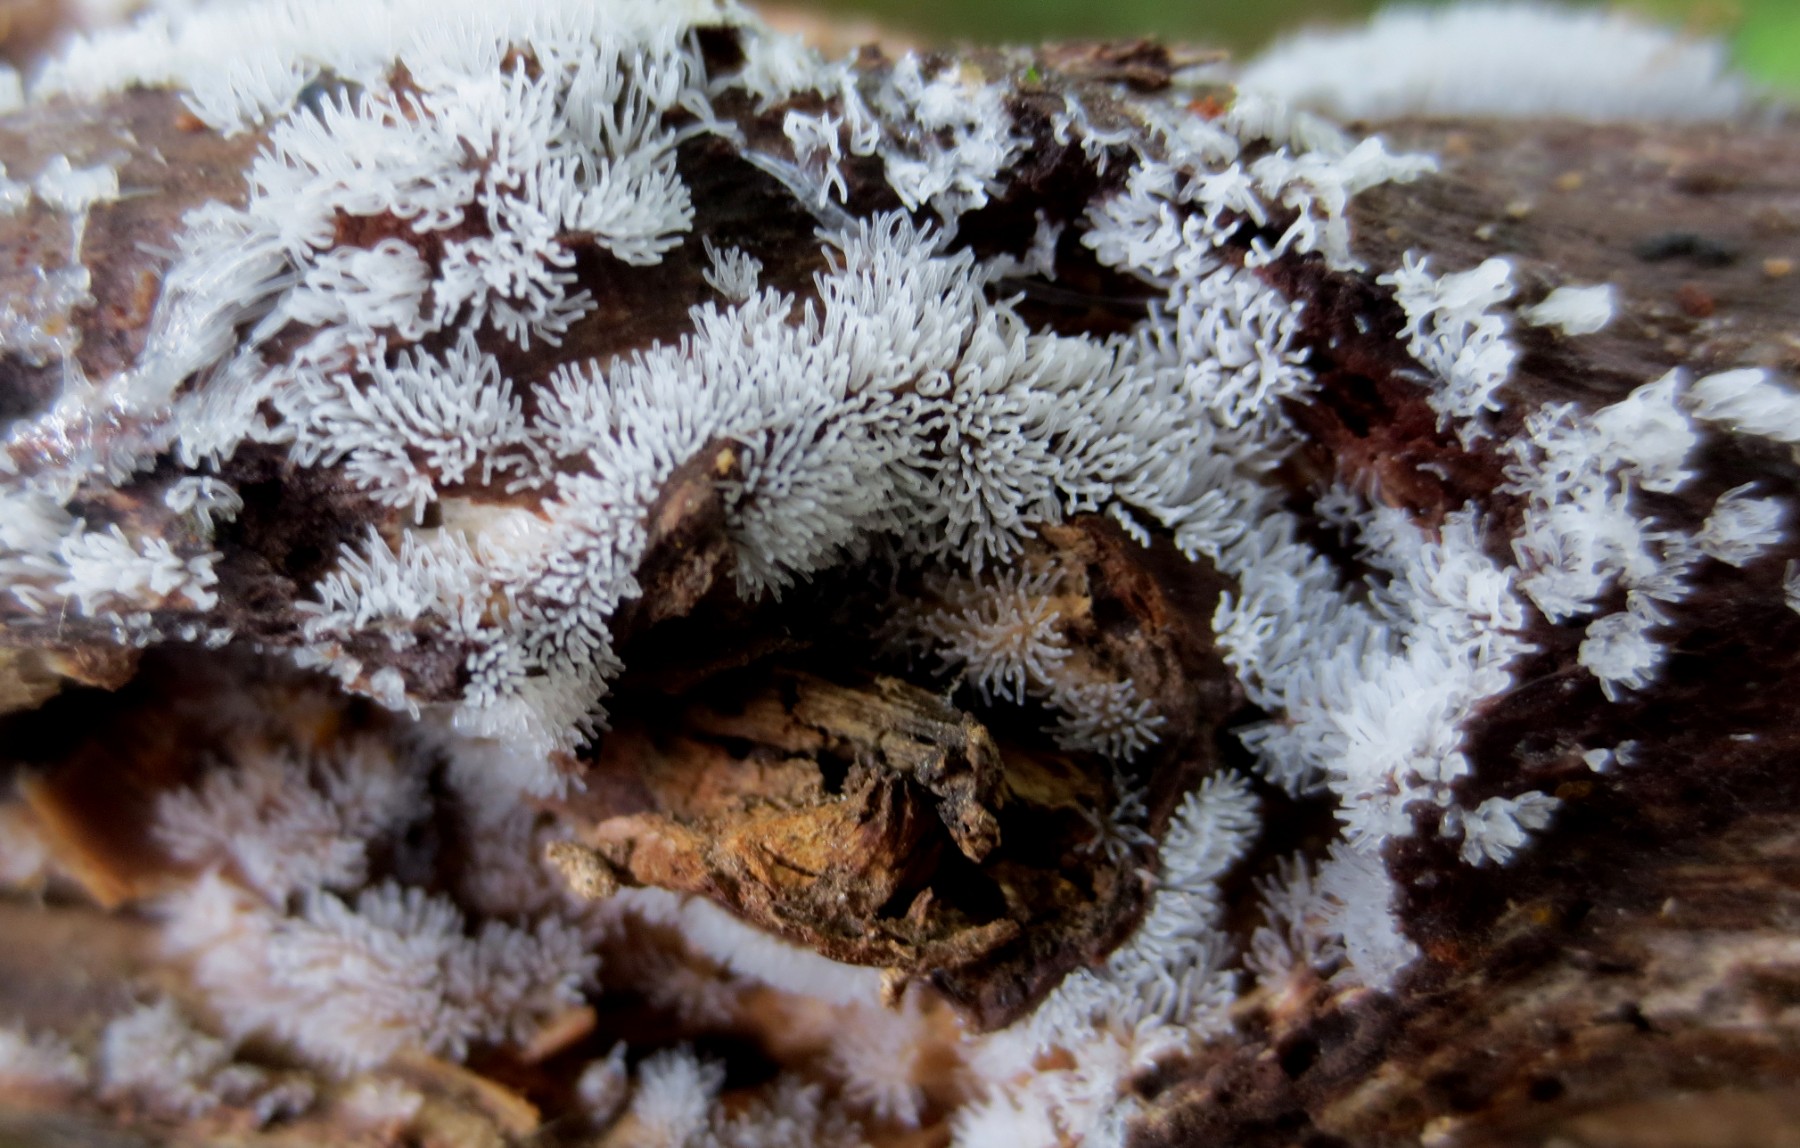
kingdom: Protozoa
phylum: Mycetozoa
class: Protosteliomycetes
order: Ceratiomyxales
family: Ceratiomyxaceae
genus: Ceratiomyxa
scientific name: Ceratiomyxa fruticulosa
